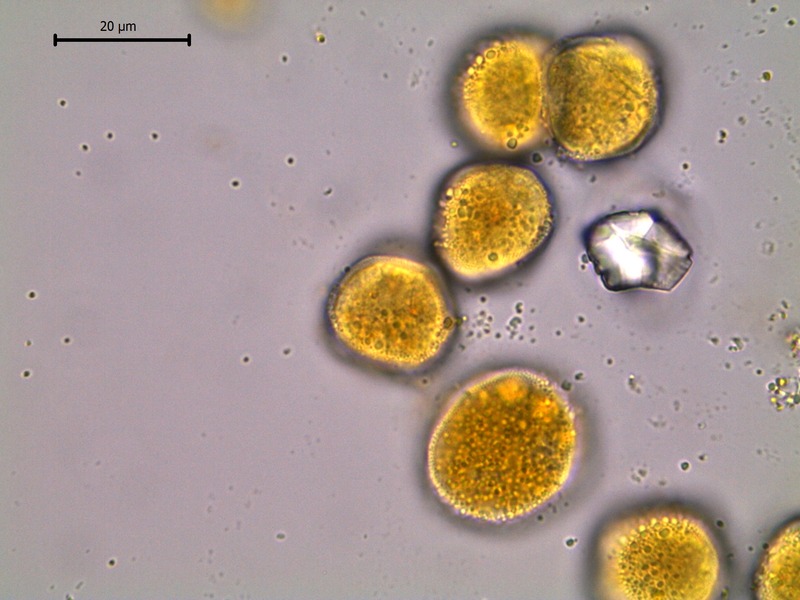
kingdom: Fungi
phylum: Basidiomycota
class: Pucciniomycetes
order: Pucciniales
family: Pucciniaceae
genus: Puccinia
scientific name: Puccinia sessilis
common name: Arum rust
